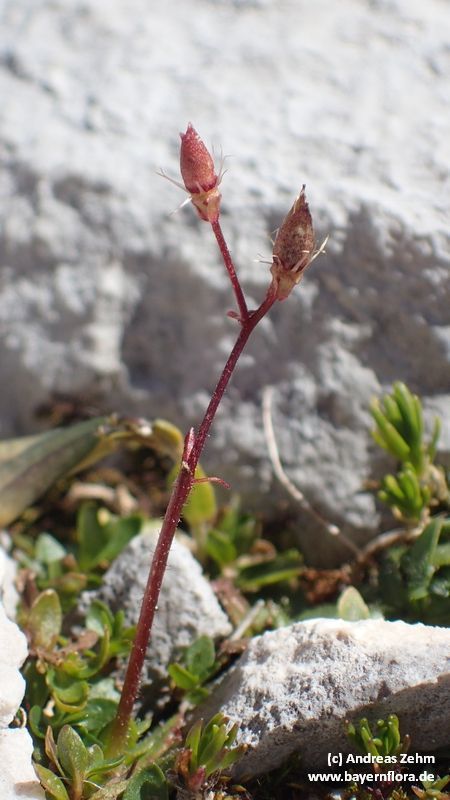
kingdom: Plantae
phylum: Tracheophyta
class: Magnoliopsida
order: Saxifragales
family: Saxifragaceae
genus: Micranthes
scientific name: Micranthes stellaris
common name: Starry saxifrage
